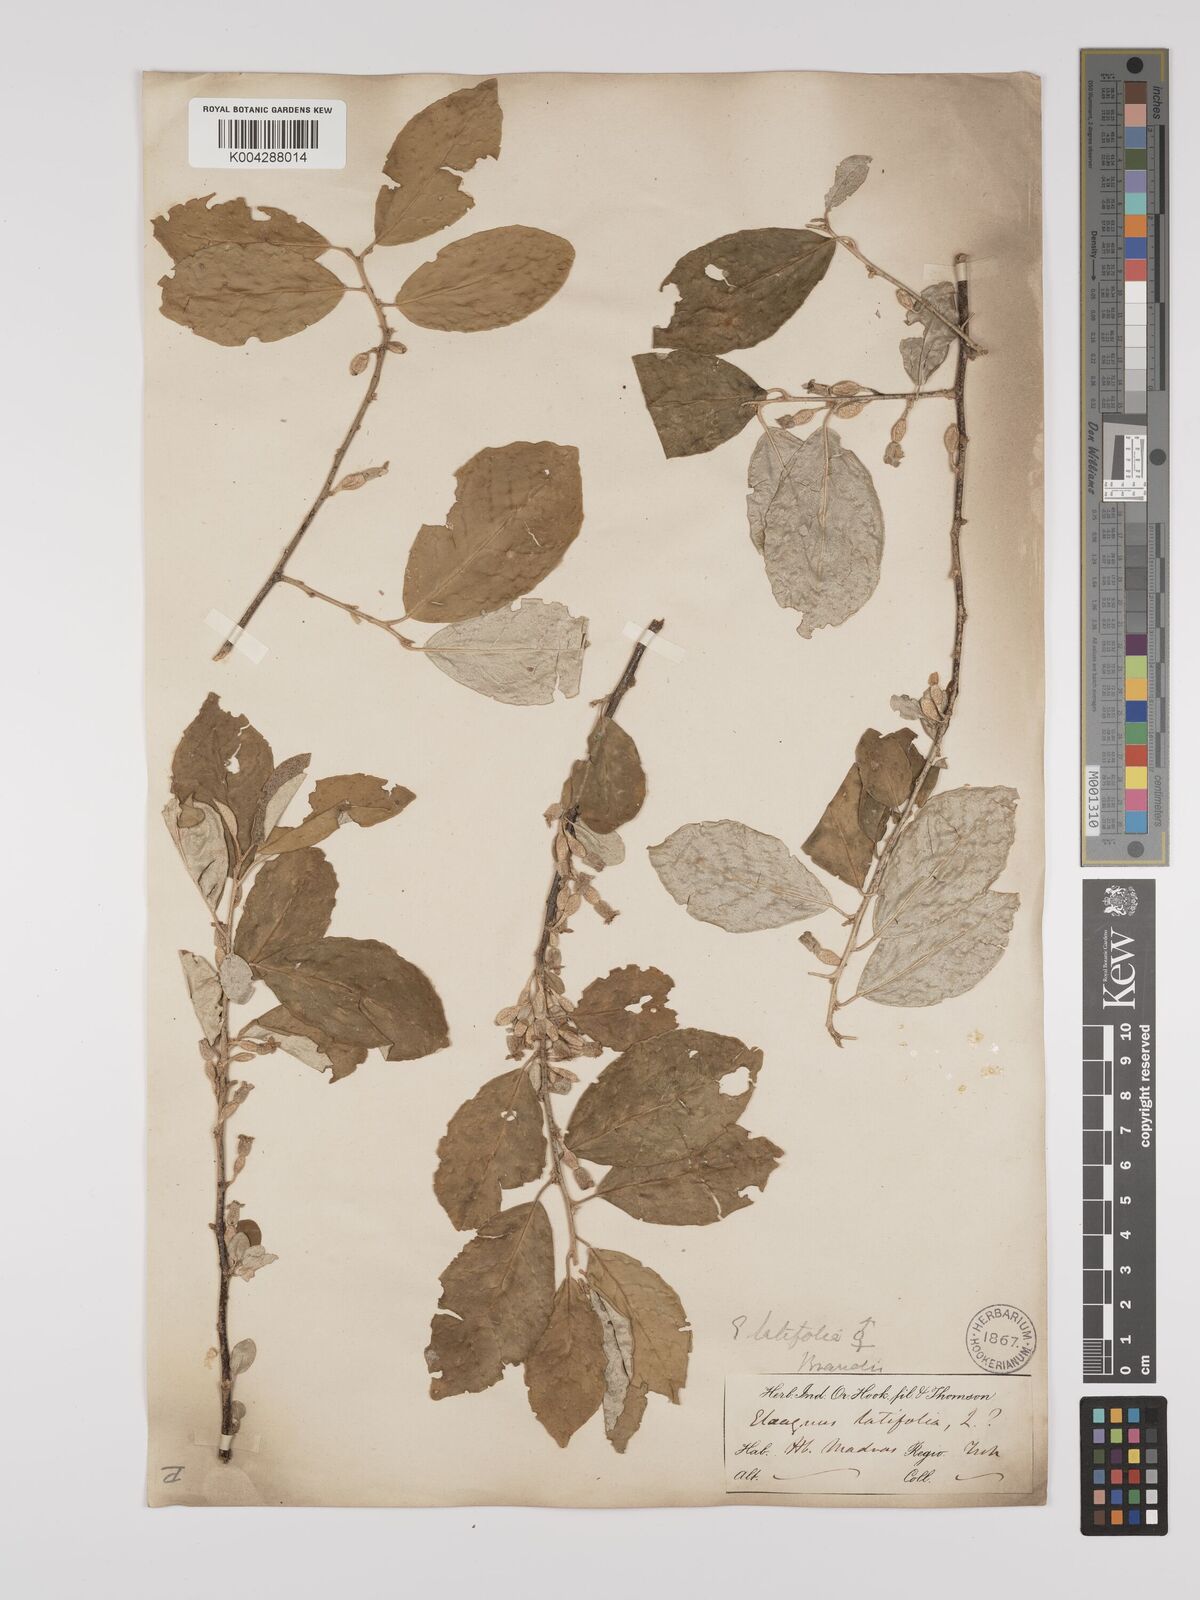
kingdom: Plantae
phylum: Tracheophyta
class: Magnoliopsida
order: Rosales
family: Elaeagnaceae
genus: Elaeagnus
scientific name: Elaeagnus latifolia
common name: Oleaster
